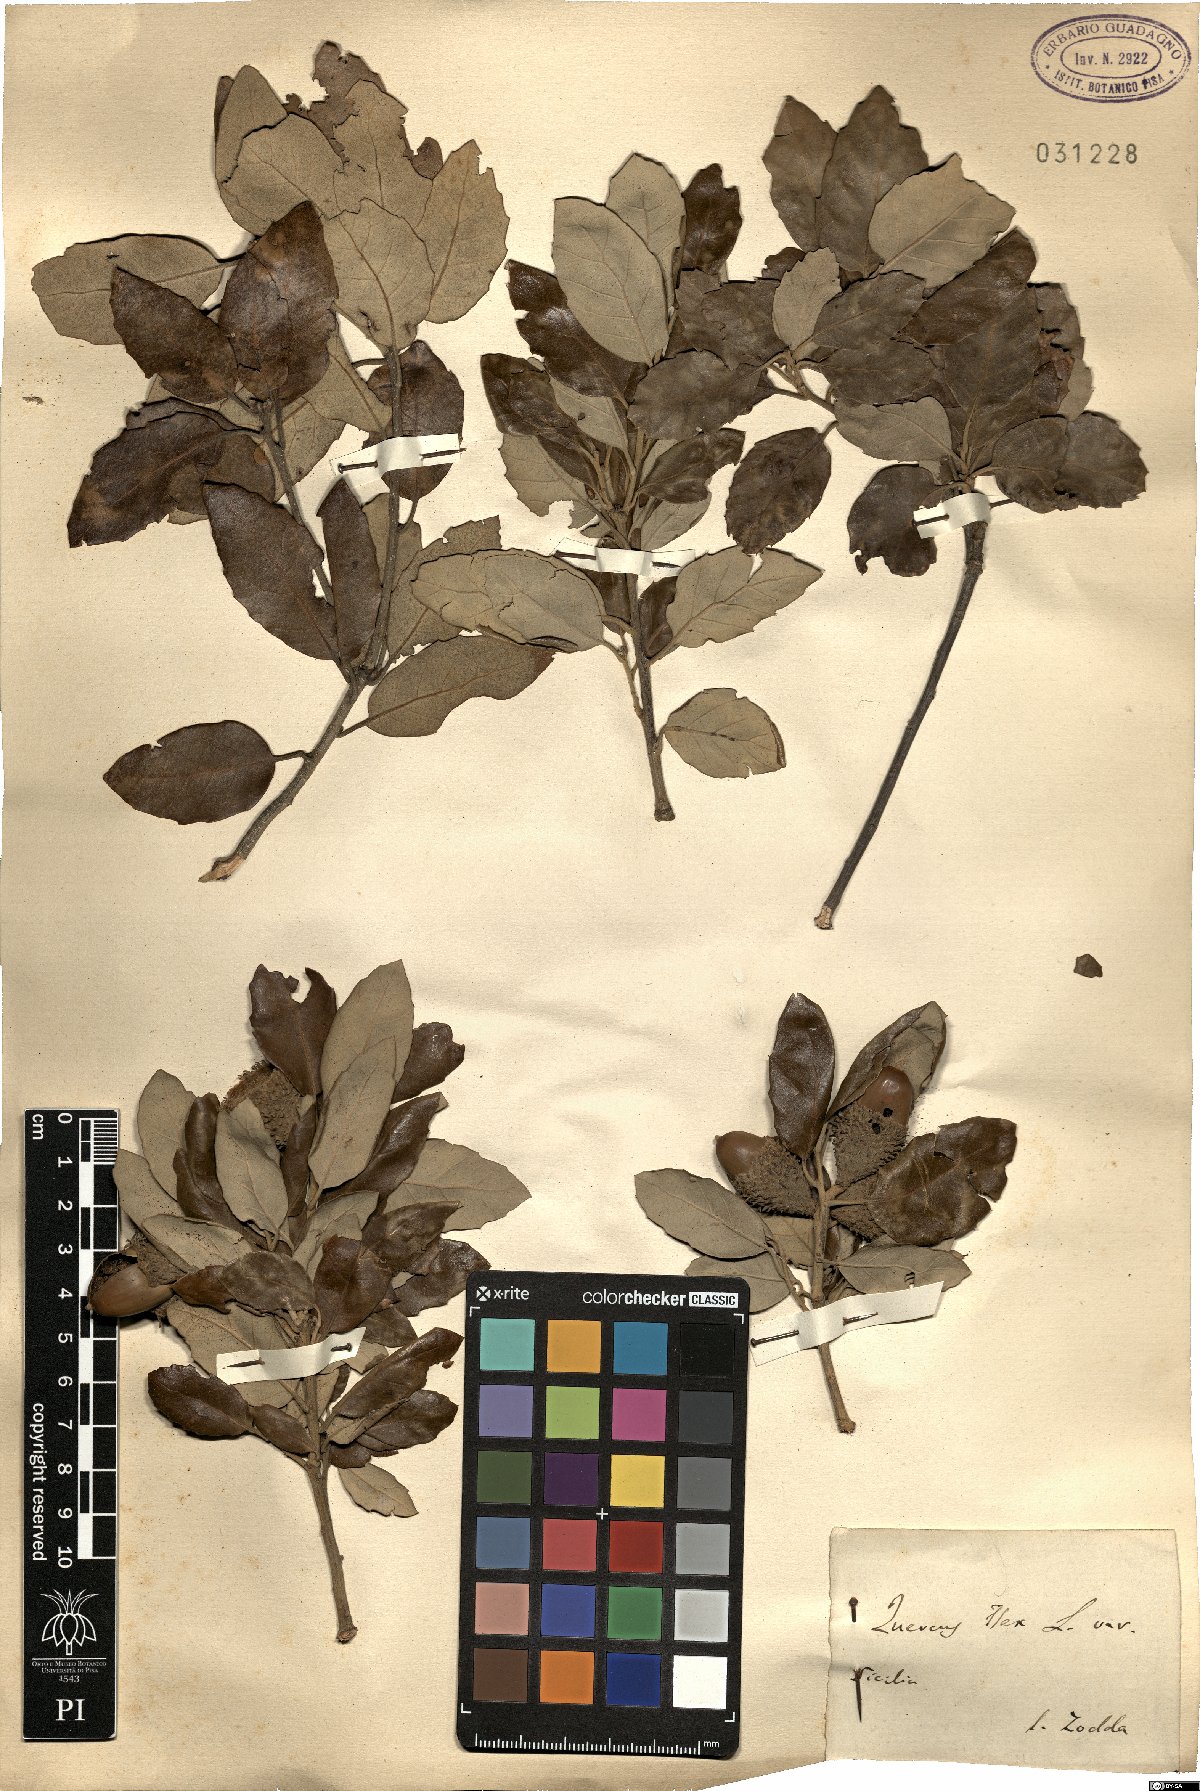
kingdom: Plantae
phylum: Tracheophyta
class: Magnoliopsida
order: Fagales
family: Fagaceae
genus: Quercus
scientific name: Quercus ilex
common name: Evergreen oak
